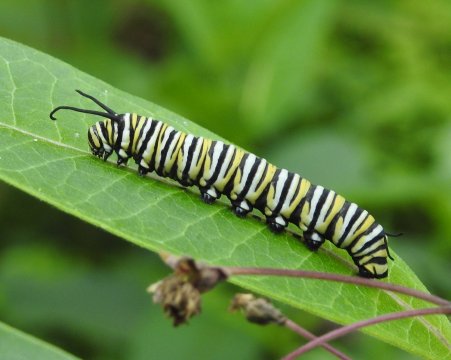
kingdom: Animalia
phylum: Arthropoda
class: Insecta
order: Lepidoptera
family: Nymphalidae
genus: Danaus
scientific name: Danaus plexippus
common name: Monarch
